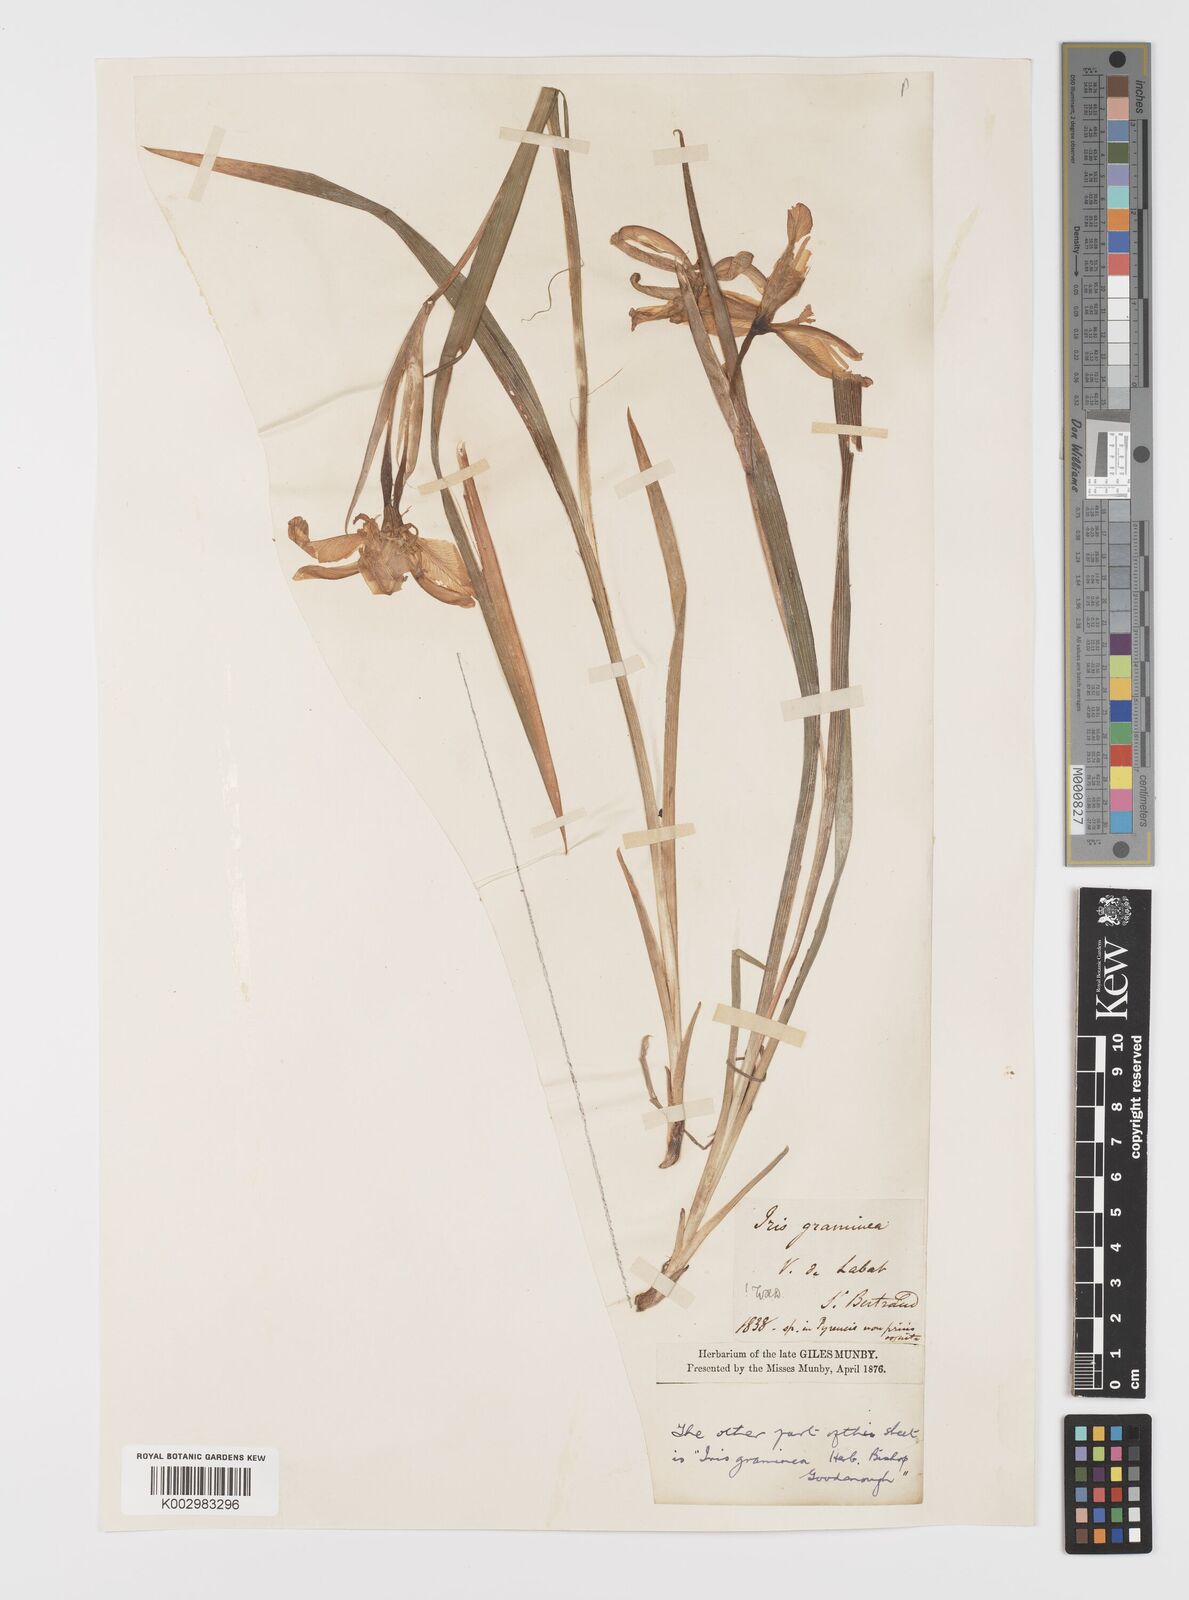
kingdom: Plantae
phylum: Tracheophyta
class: Liliopsida
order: Asparagales
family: Iridaceae
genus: Iris
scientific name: Iris graminea
